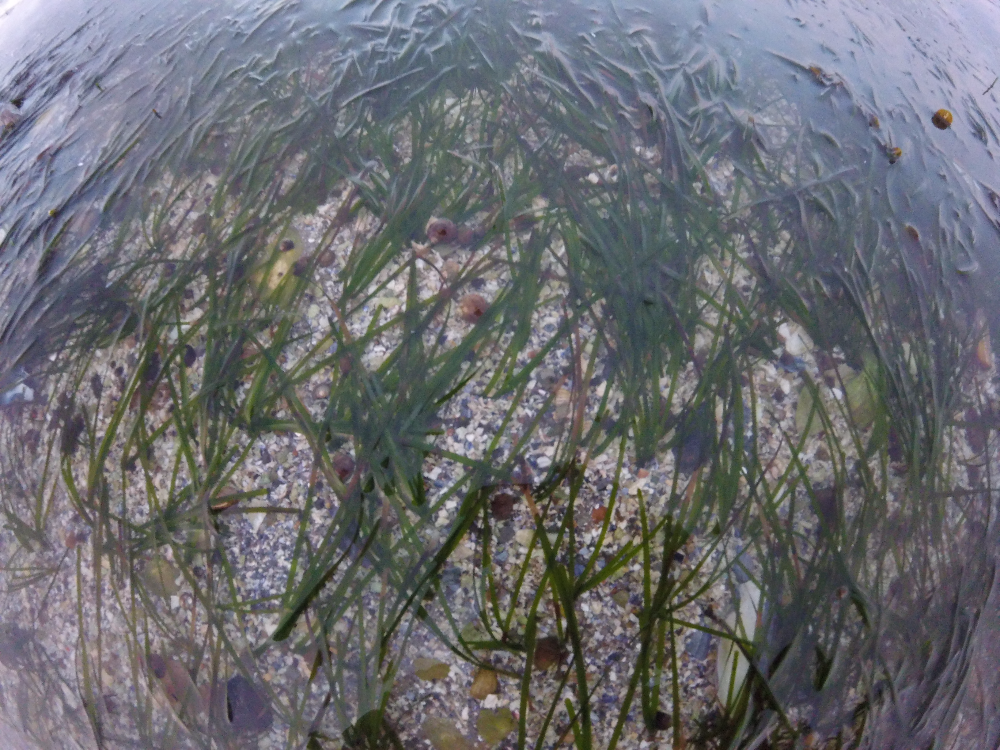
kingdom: Plantae
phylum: Tracheophyta
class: Liliopsida
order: Alismatales
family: Zosteraceae
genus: Zostera
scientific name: Zostera marina
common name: Eelgrass
